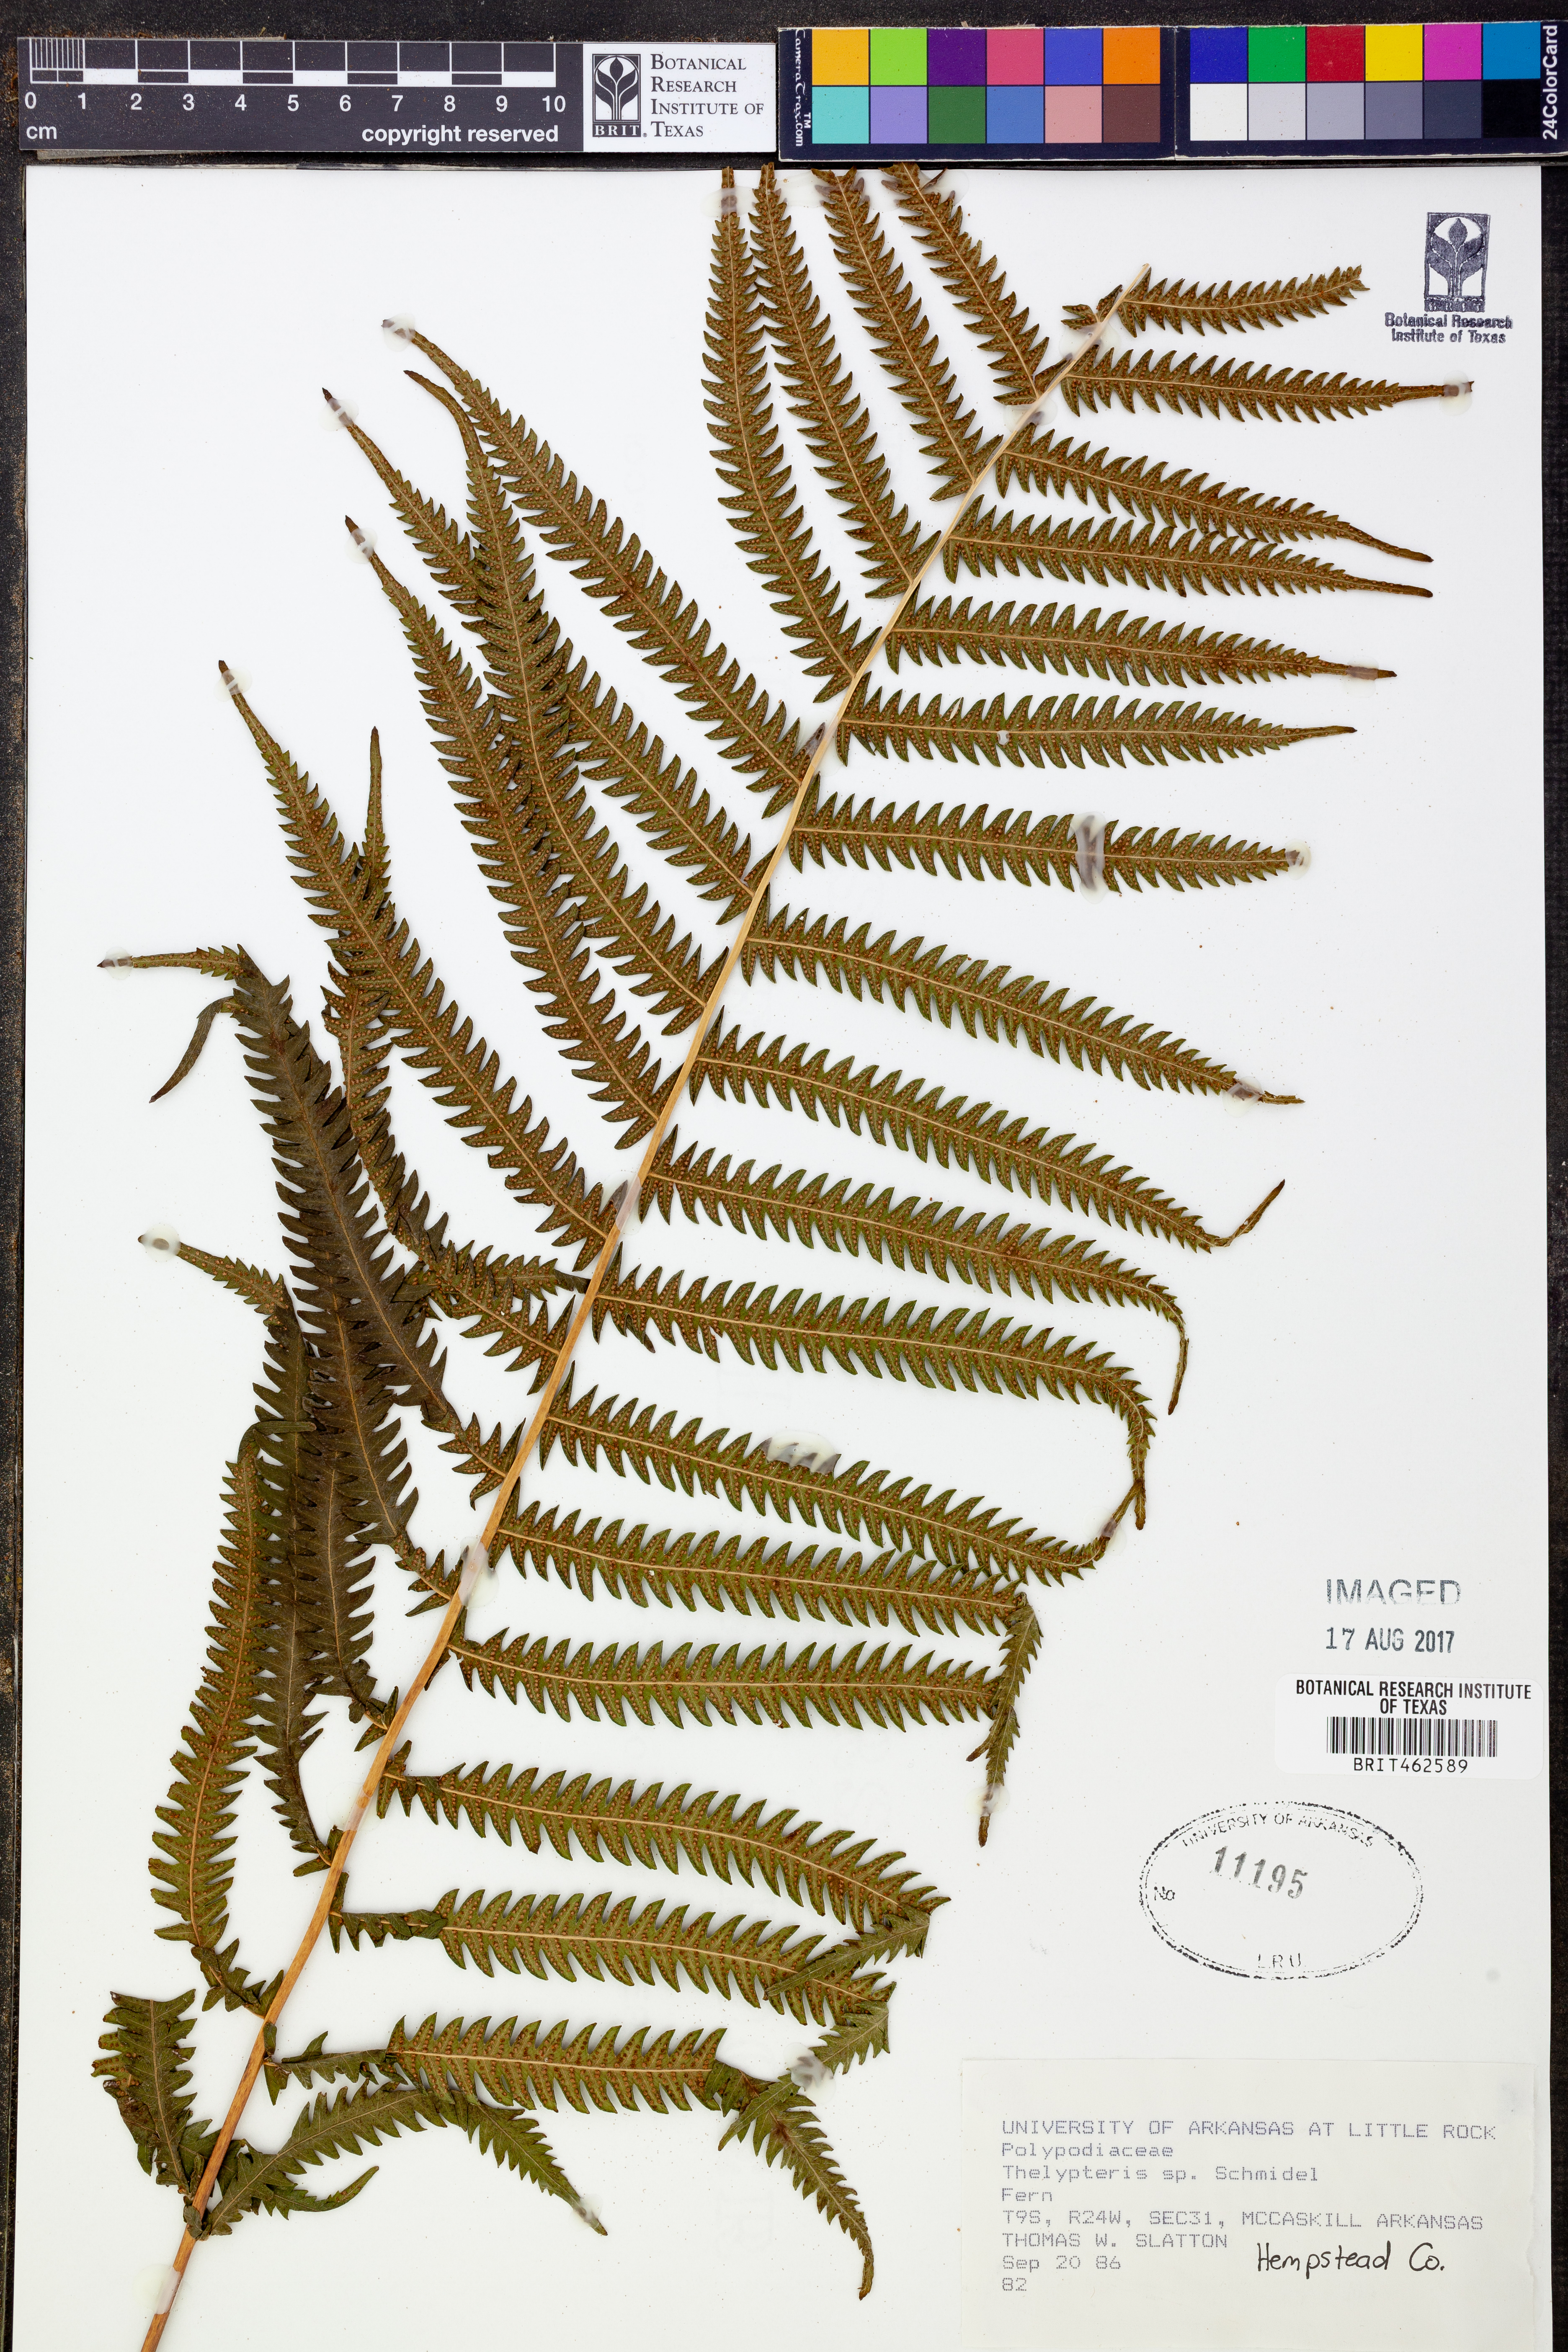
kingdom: Plantae
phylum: Tracheophyta
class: Polypodiopsida
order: Polypodiales
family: Thelypteridaceae
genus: Thelypteris
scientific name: Thelypteris
